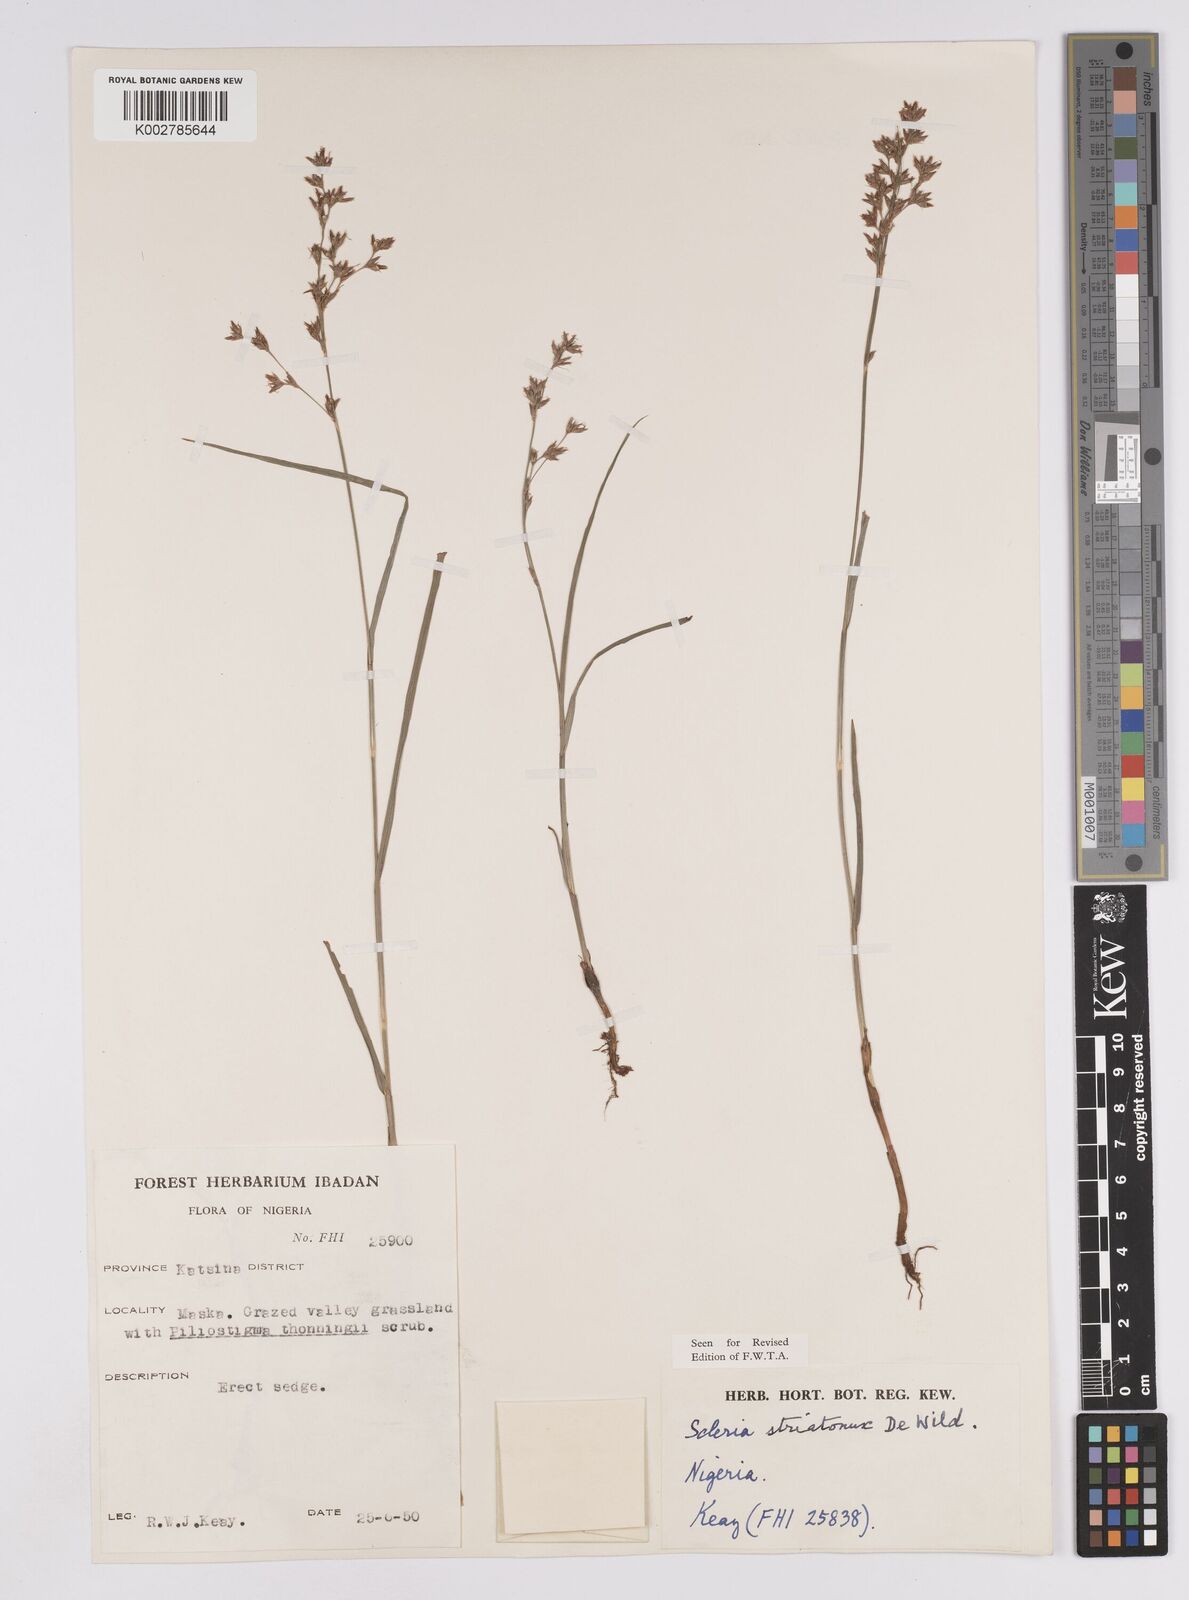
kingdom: Plantae
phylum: Tracheophyta
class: Liliopsida
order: Poales
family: Cyperaceae
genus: Scleria
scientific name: Scleria woodii
